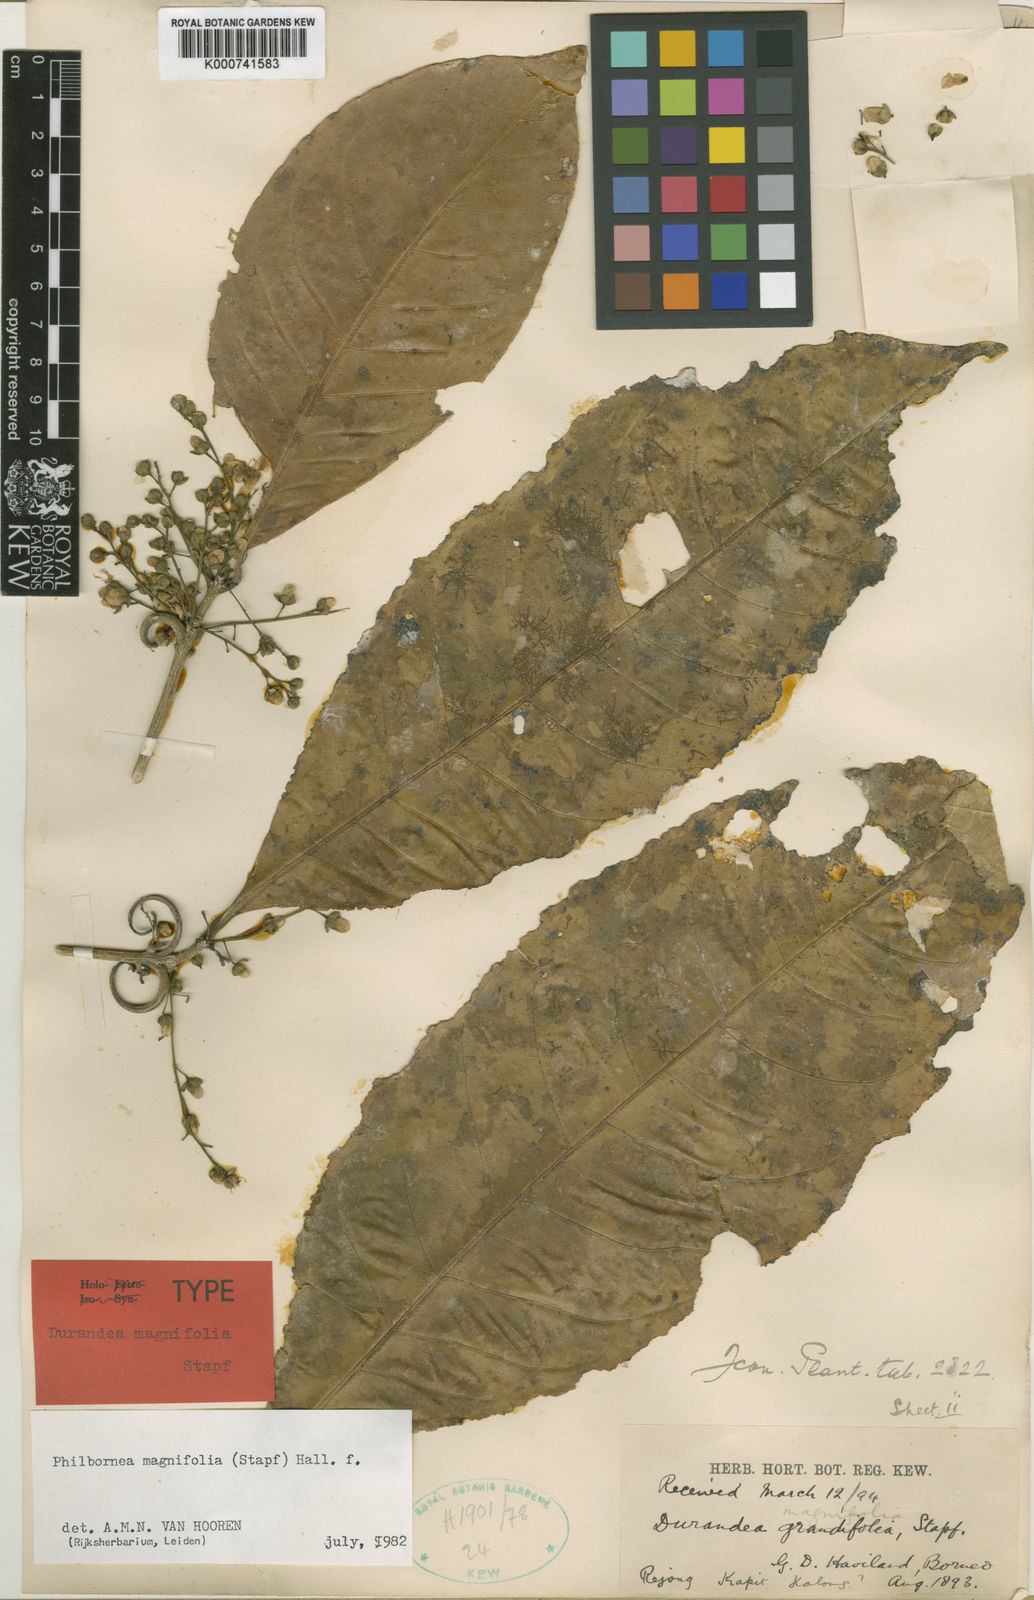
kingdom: Plantae
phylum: Tracheophyta
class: Magnoliopsida
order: Malpighiales
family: Linaceae
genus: Philbornea
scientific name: Philbornea magnifolia
